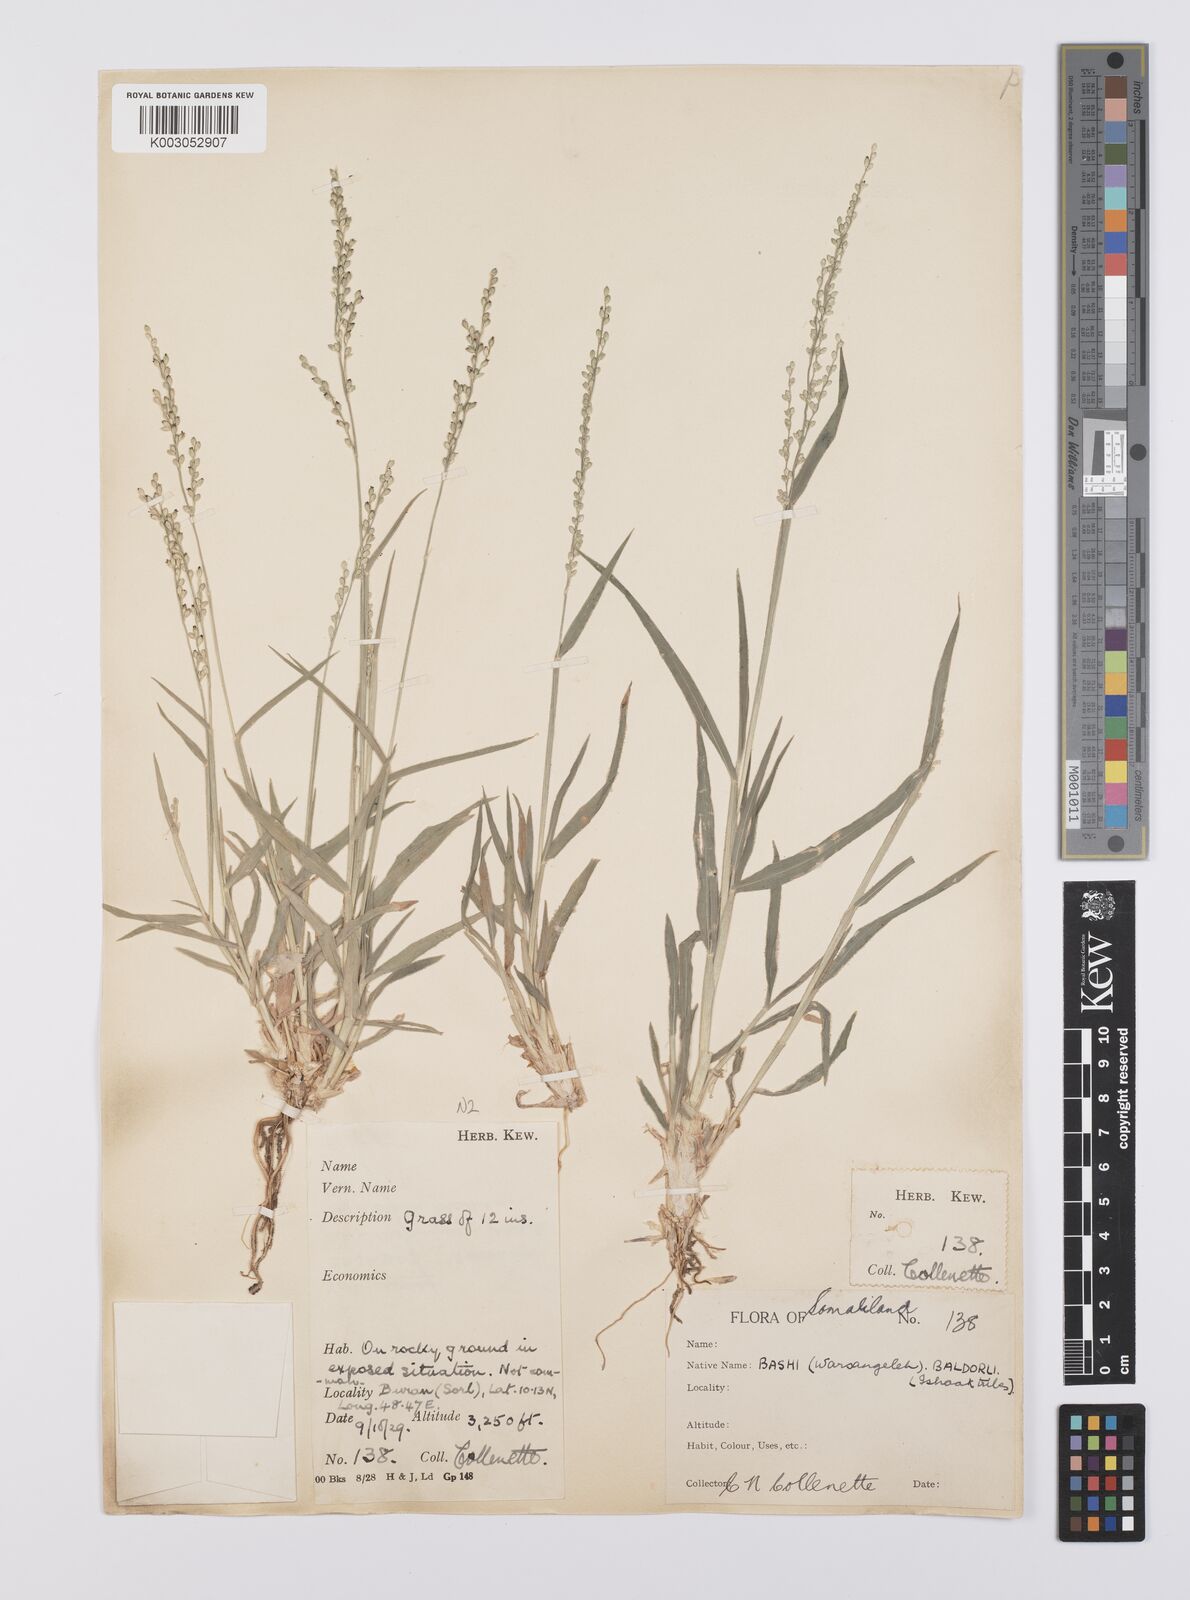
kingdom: Plantae
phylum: Tracheophyta
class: Liliopsida
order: Poales
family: Poaceae
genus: Urochloa
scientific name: Urochloa ovalis
